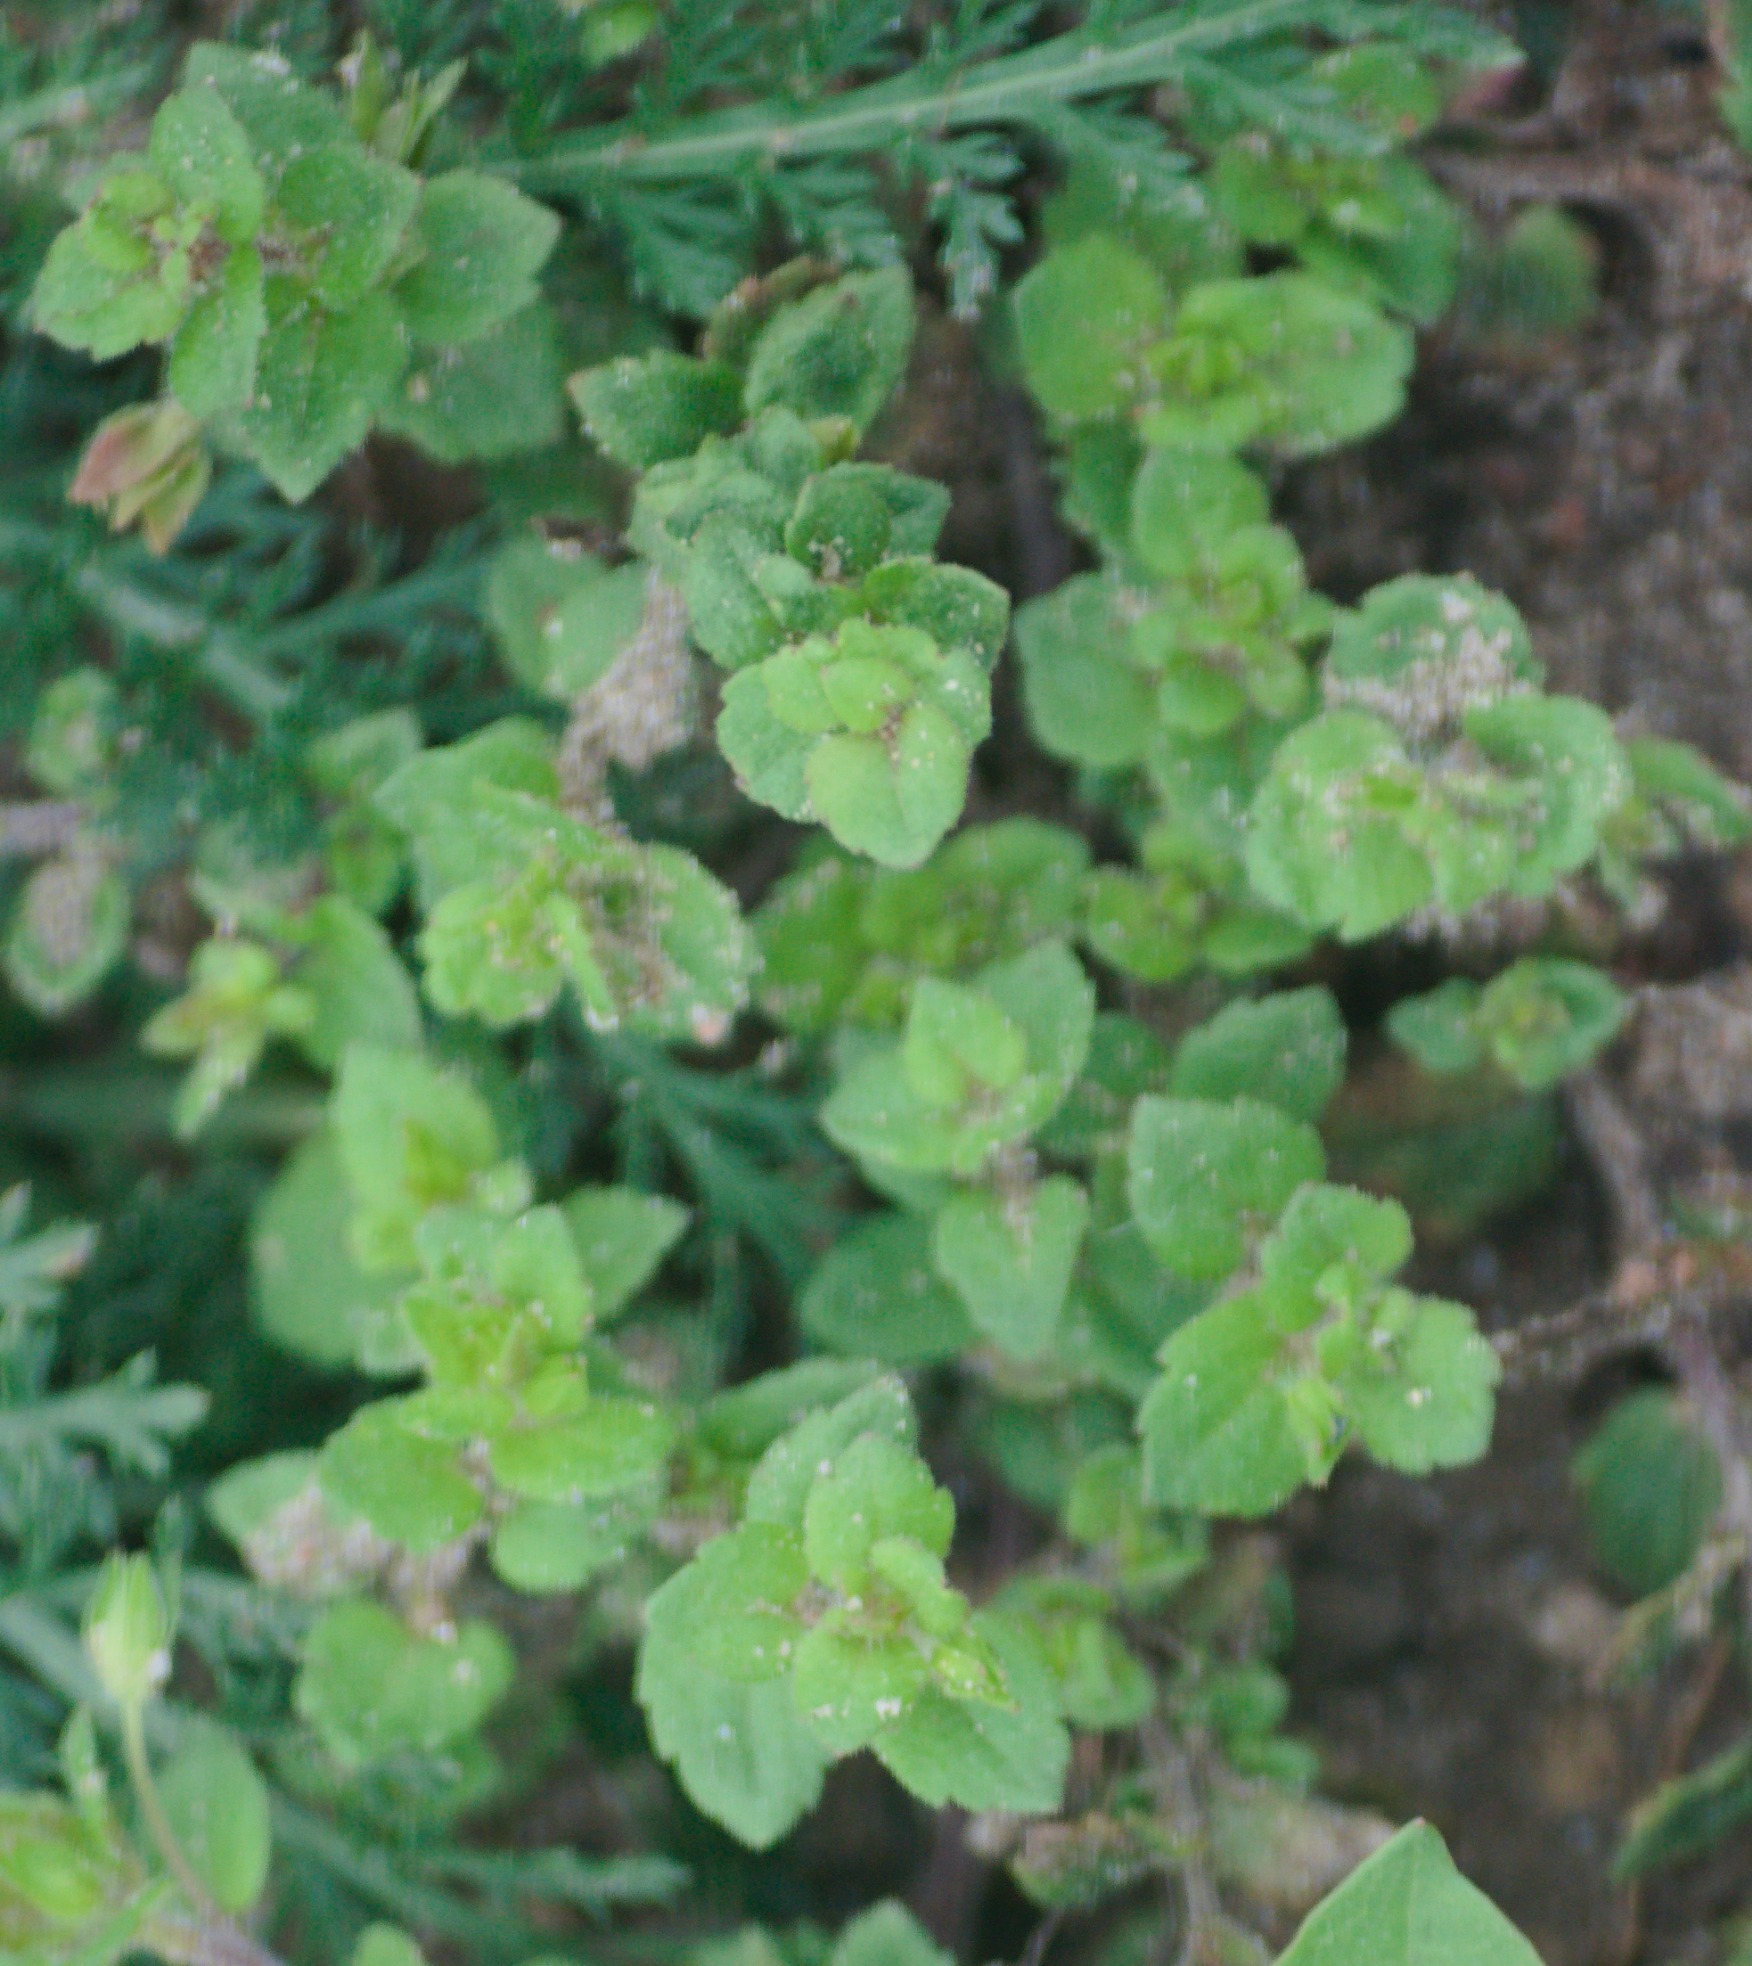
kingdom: Plantae
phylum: Tracheophyta
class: Magnoliopsida
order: Lamiales
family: Plantaginaceae
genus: Veronica
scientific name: Veronica
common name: Ærenprisslægten
